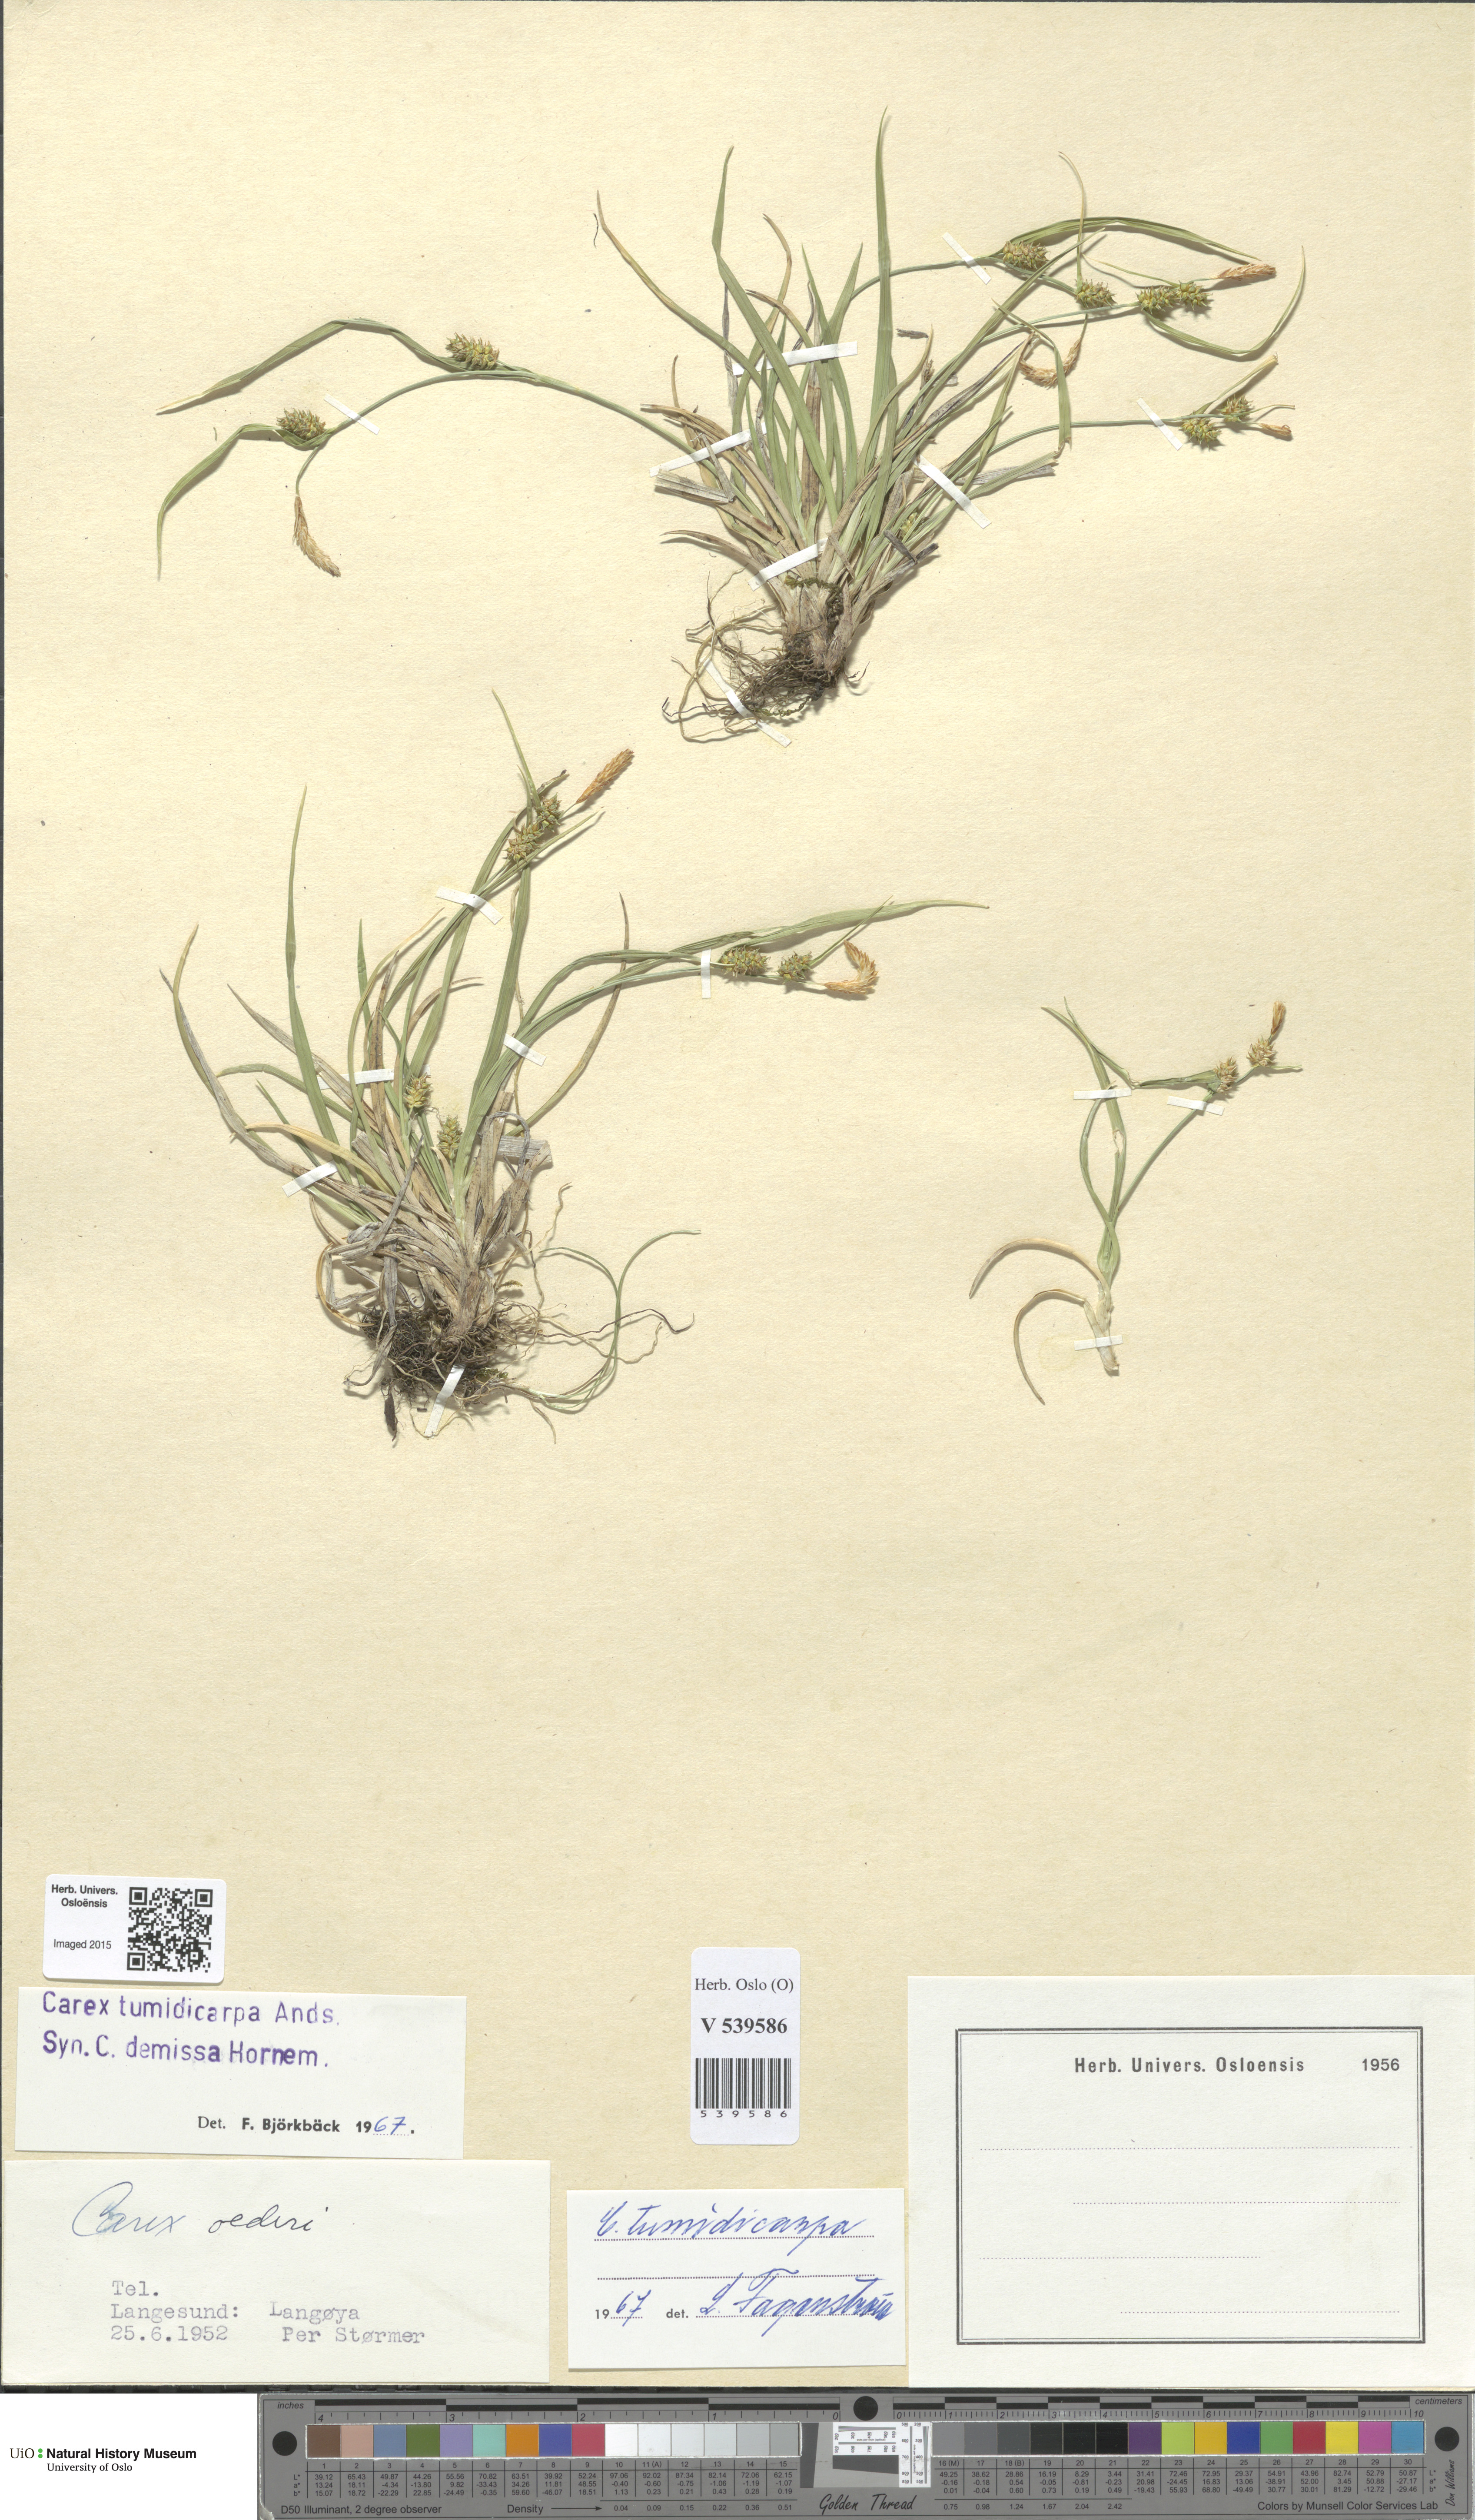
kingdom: Plantae
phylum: Tracheophyta
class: Liliopsida
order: Poales
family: Cyperaceae
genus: Carex
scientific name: Carex demissa
